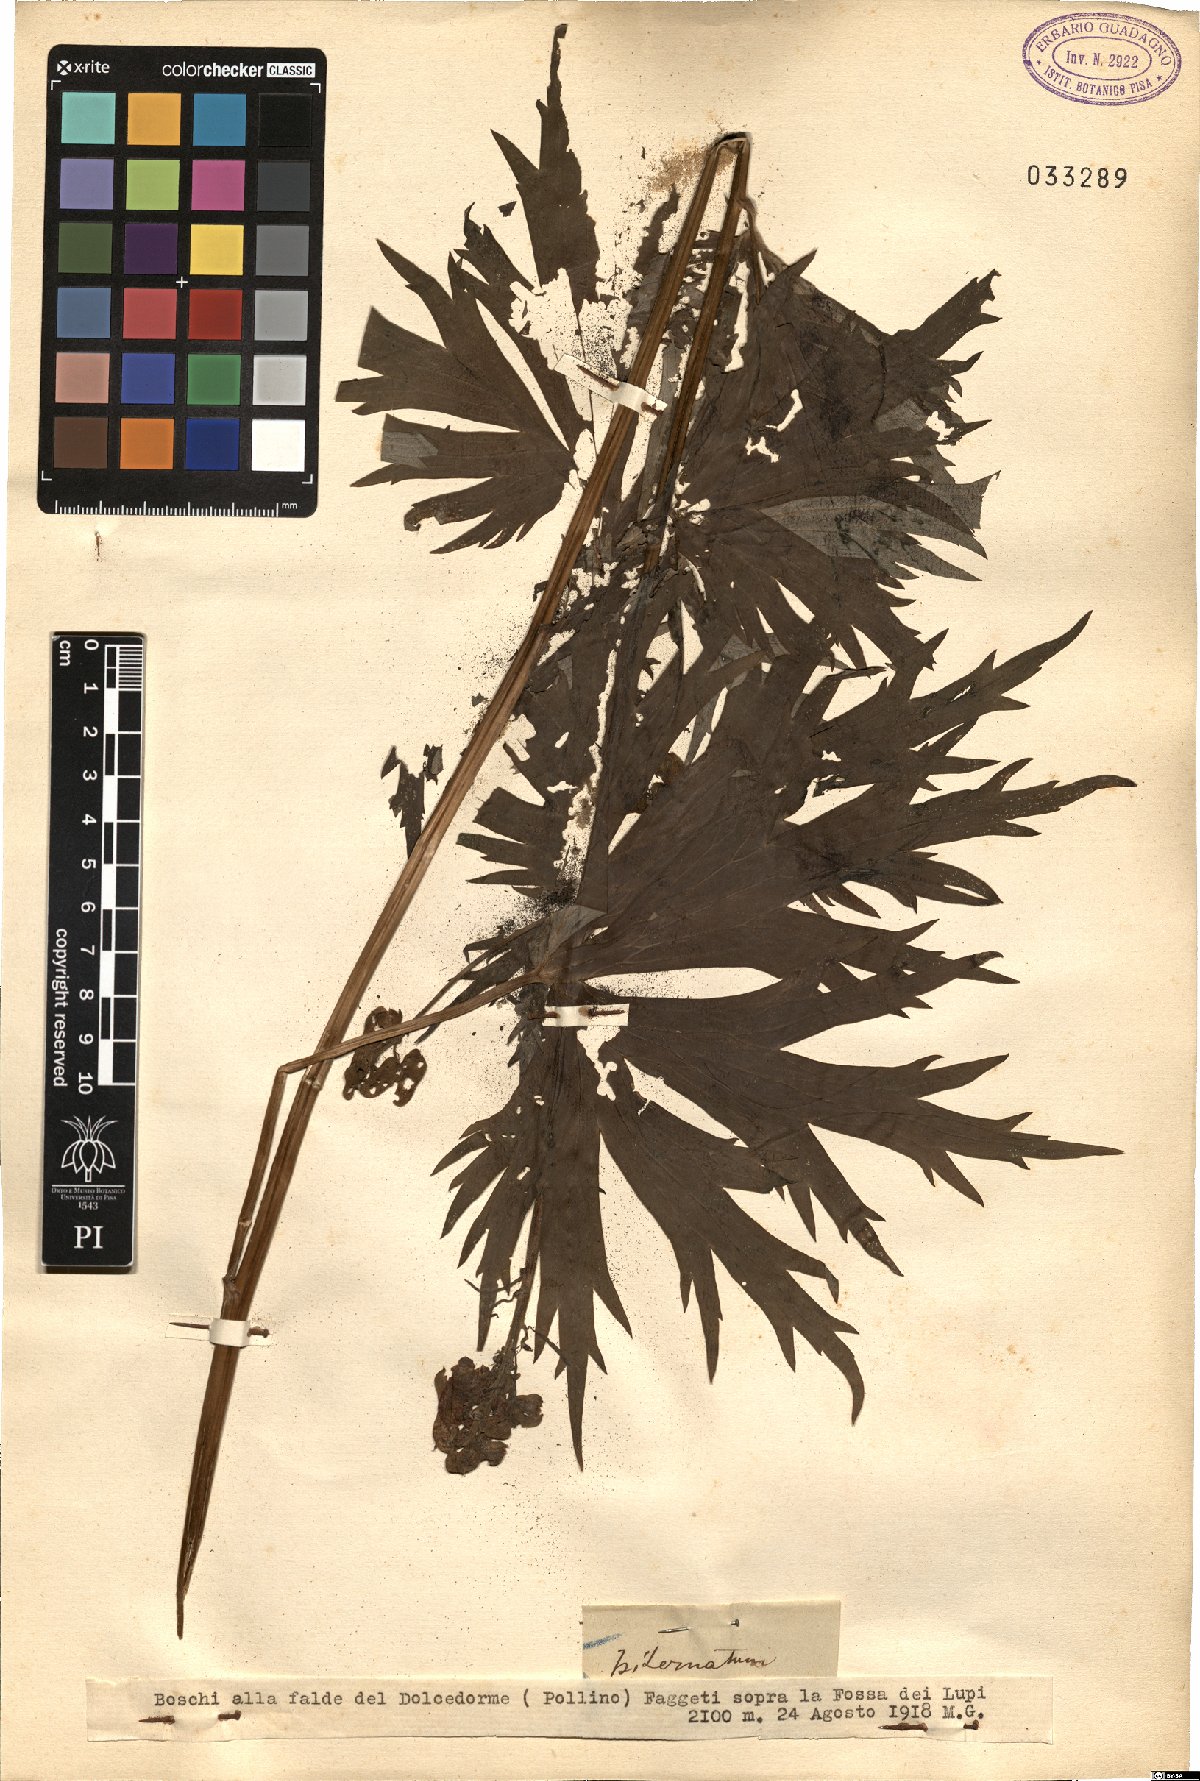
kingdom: Plantae
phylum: Tracheophyta
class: Magnoliopsida
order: Ranunculales
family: Ranunculaceae
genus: Aconitum
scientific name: Aconitum
